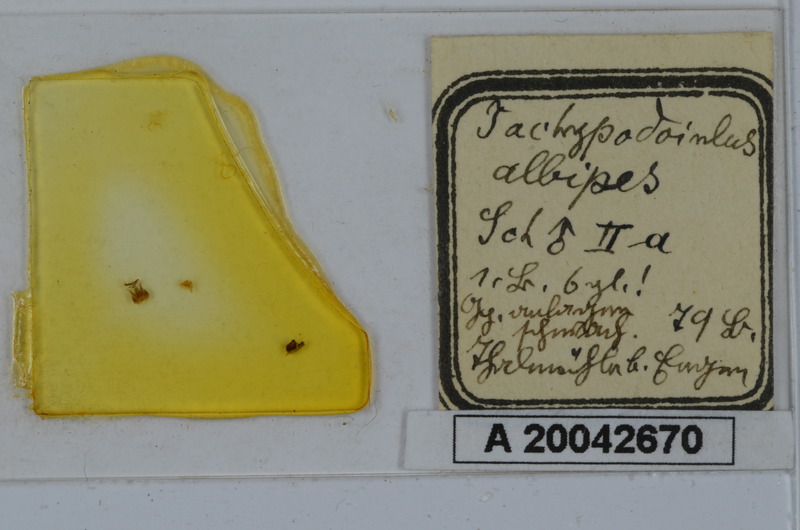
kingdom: Animalia
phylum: Arthropoda
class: Diplopoda
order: Julida
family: Julidae
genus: Tachypodoiulus
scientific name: Tachypodoiulus niger
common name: White-legged snake millipede
